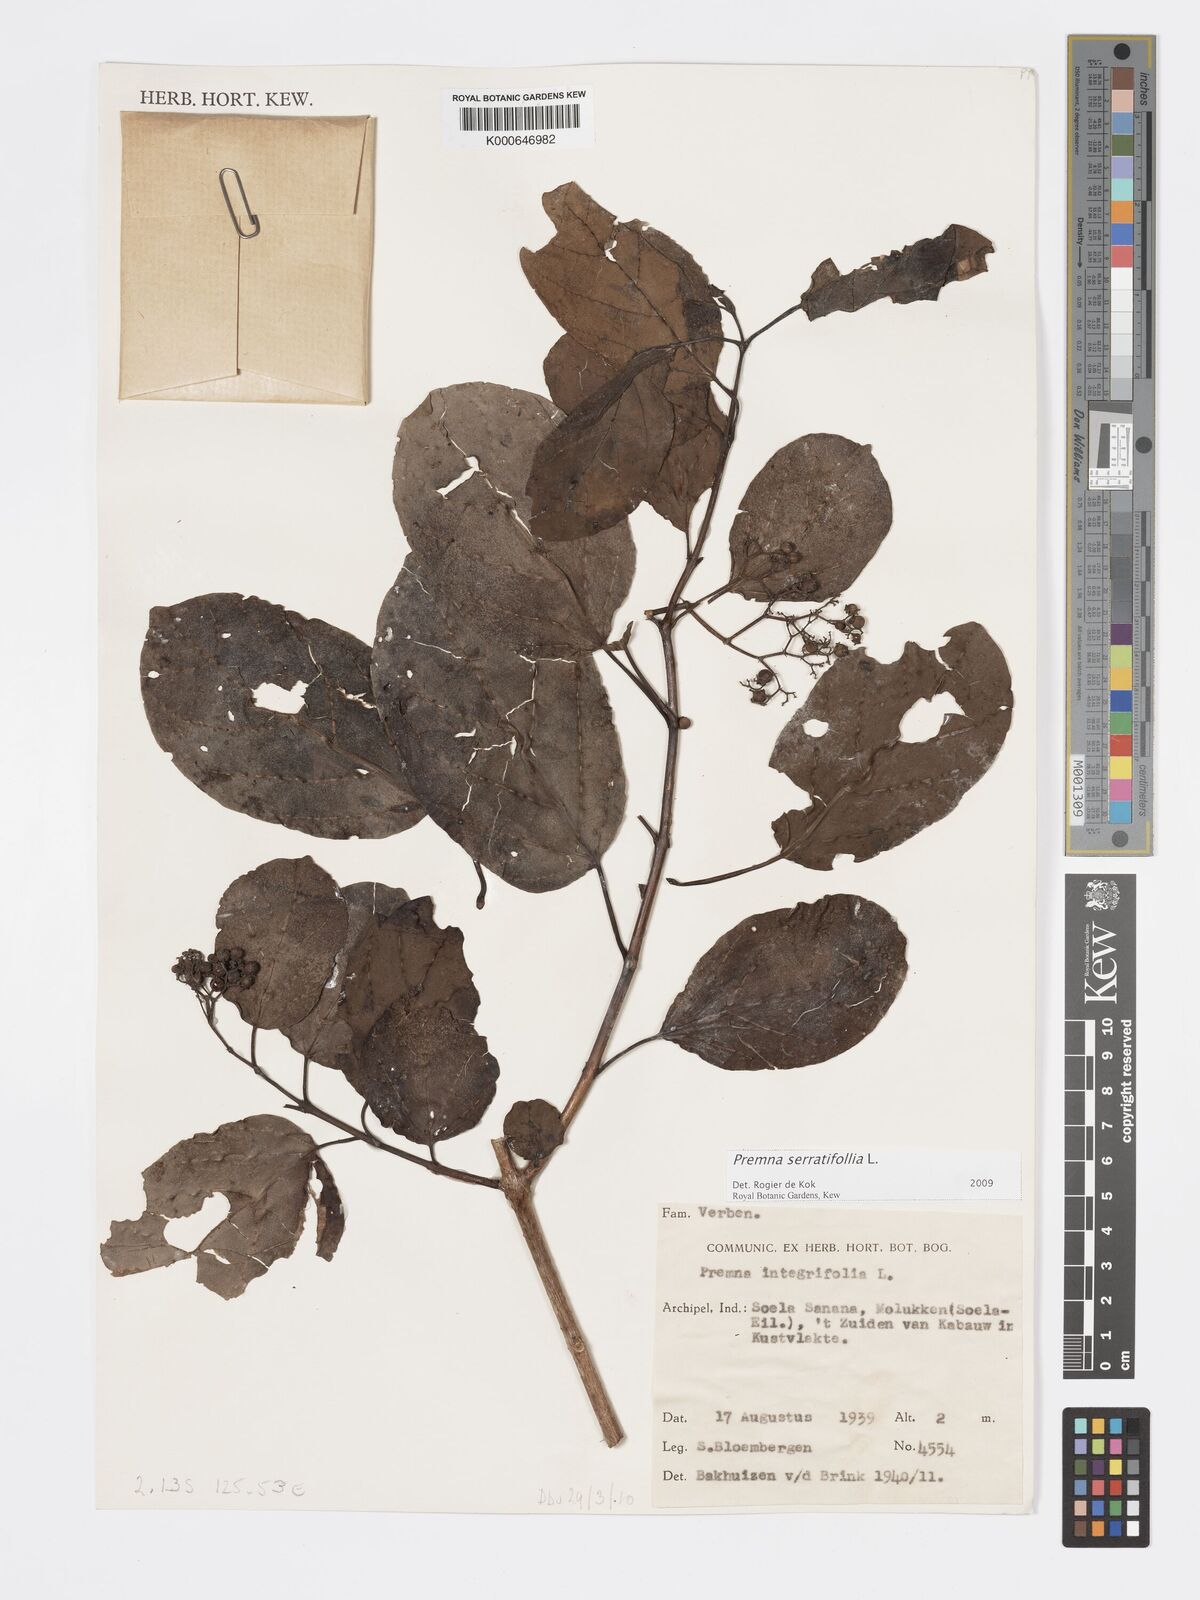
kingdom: Plantae
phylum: Tracheophyta
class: Magnoliopsida
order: Lamiales
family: Lamiaceae
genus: Premna
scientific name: Premna serratifolia
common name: Bastard guelder
